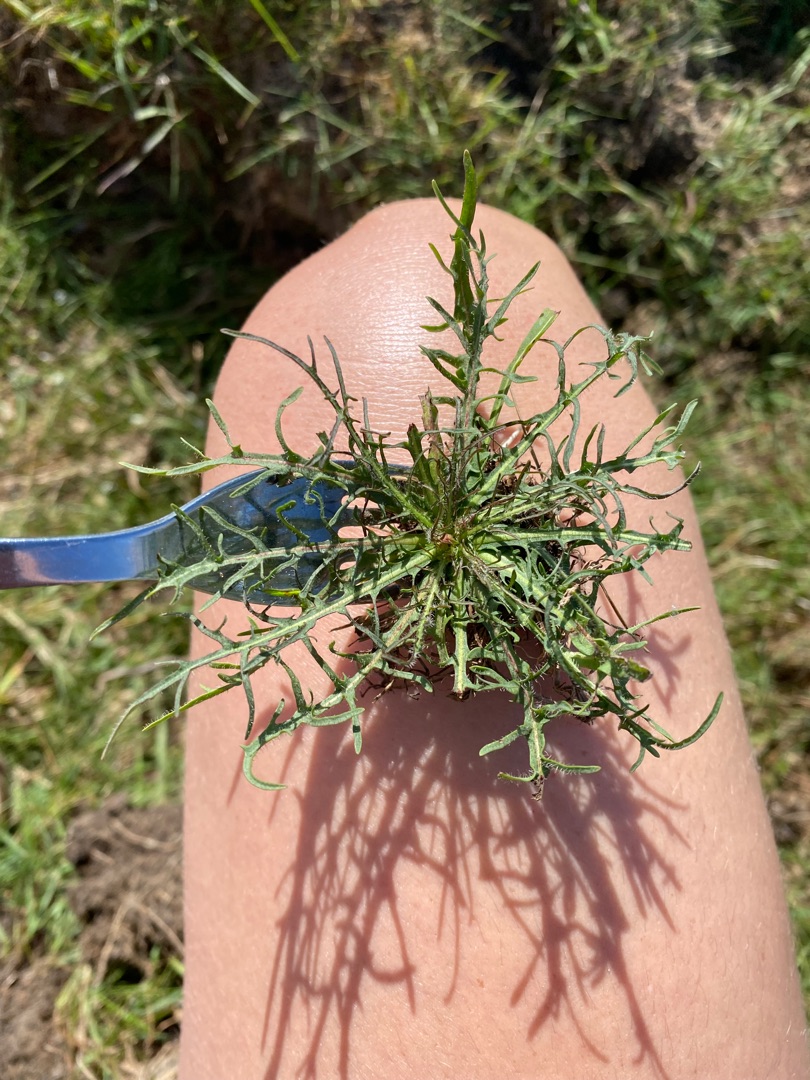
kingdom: Plantae
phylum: Tracheophyta
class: Magnoliopsida
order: Asterales
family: Asteraceae
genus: Scorzoneroides
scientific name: Scorzoneroides autumnalis
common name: Høst-borst
